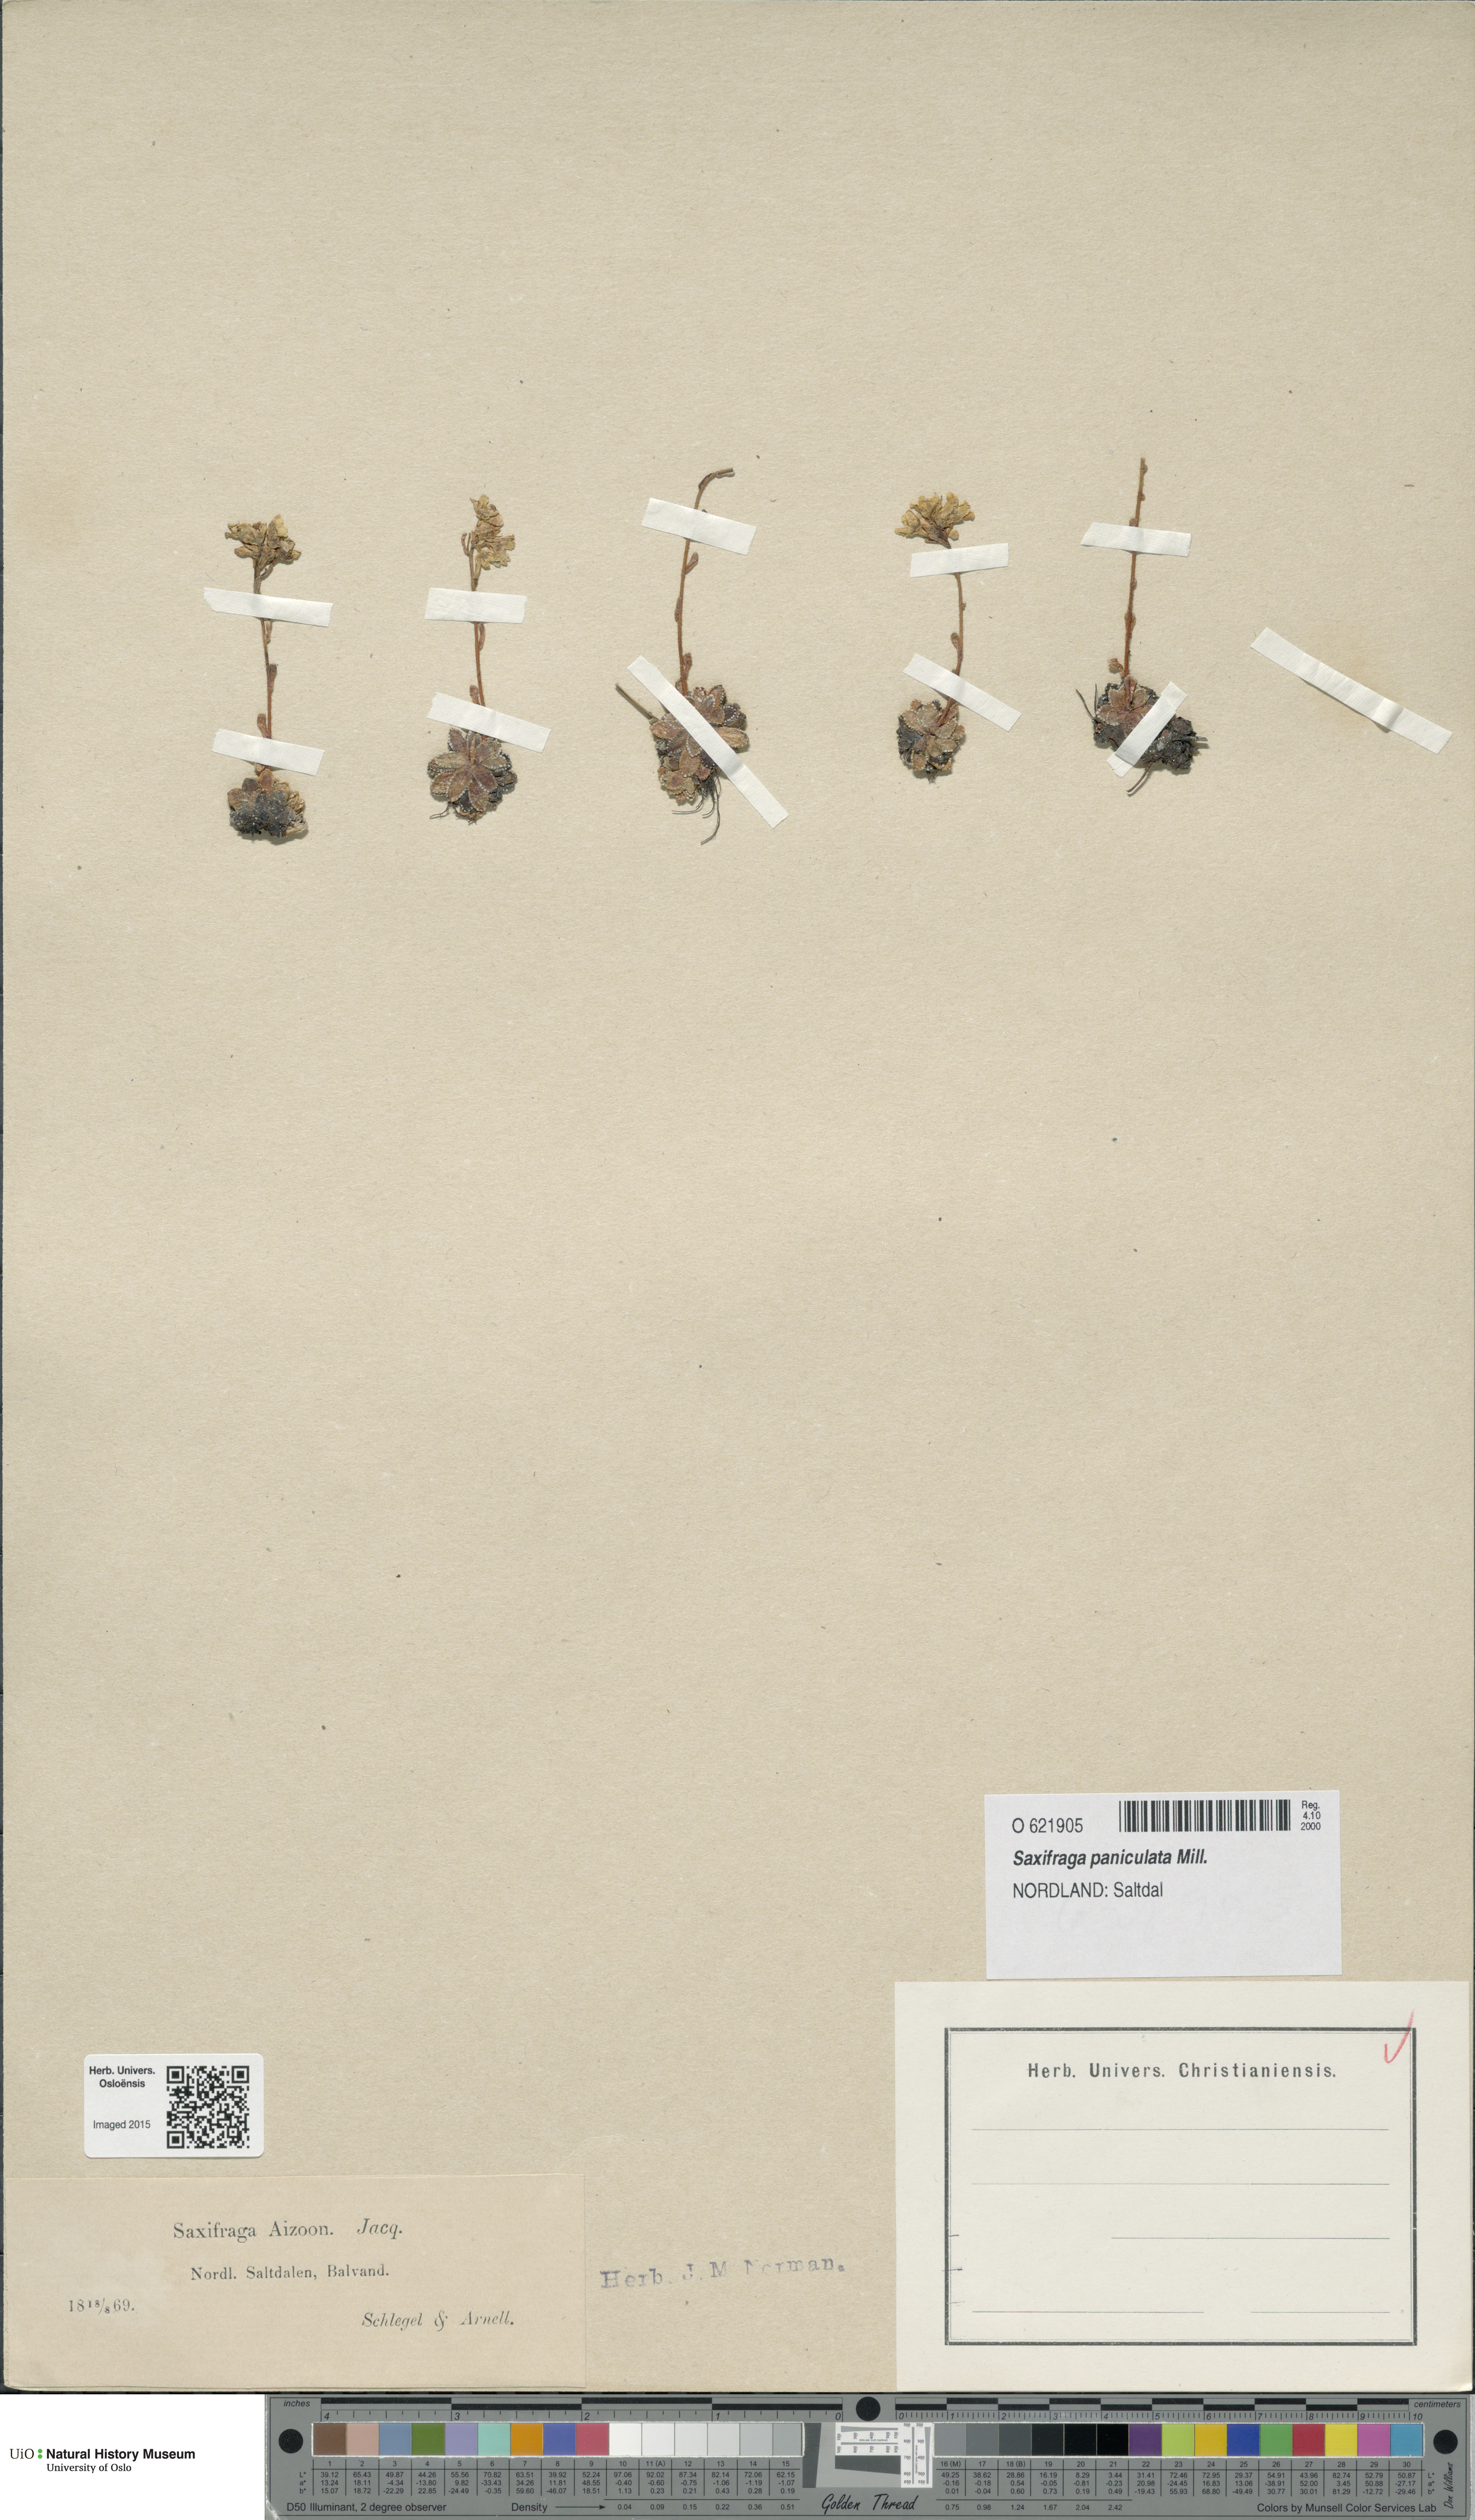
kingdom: Plantae
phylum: Tracheophyta
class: Magnoliopsida
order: Saxifragales
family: Saxifragaceae
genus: Saxifraga
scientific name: Saxifraga paniculata
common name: Livelong saxifrage
